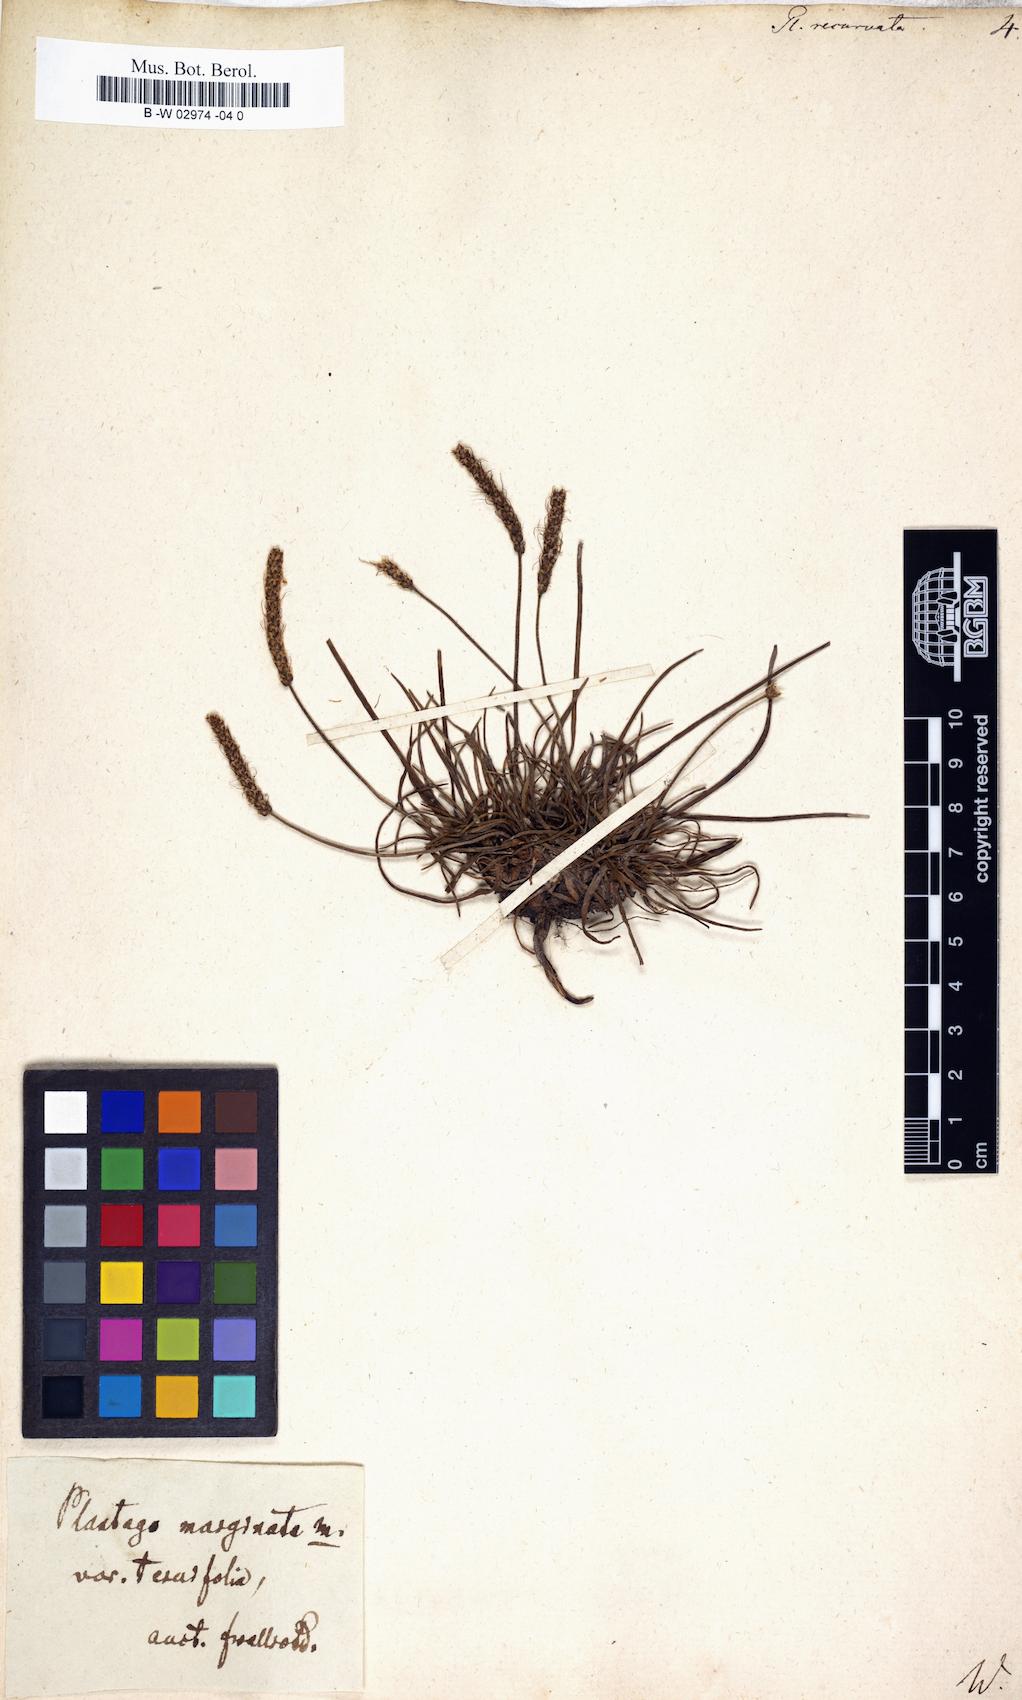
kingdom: Plantae
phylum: Tracheophyta
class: Magnoliopsida
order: Lamiales
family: Plantaginaceae
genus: Plantago
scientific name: Plantago
